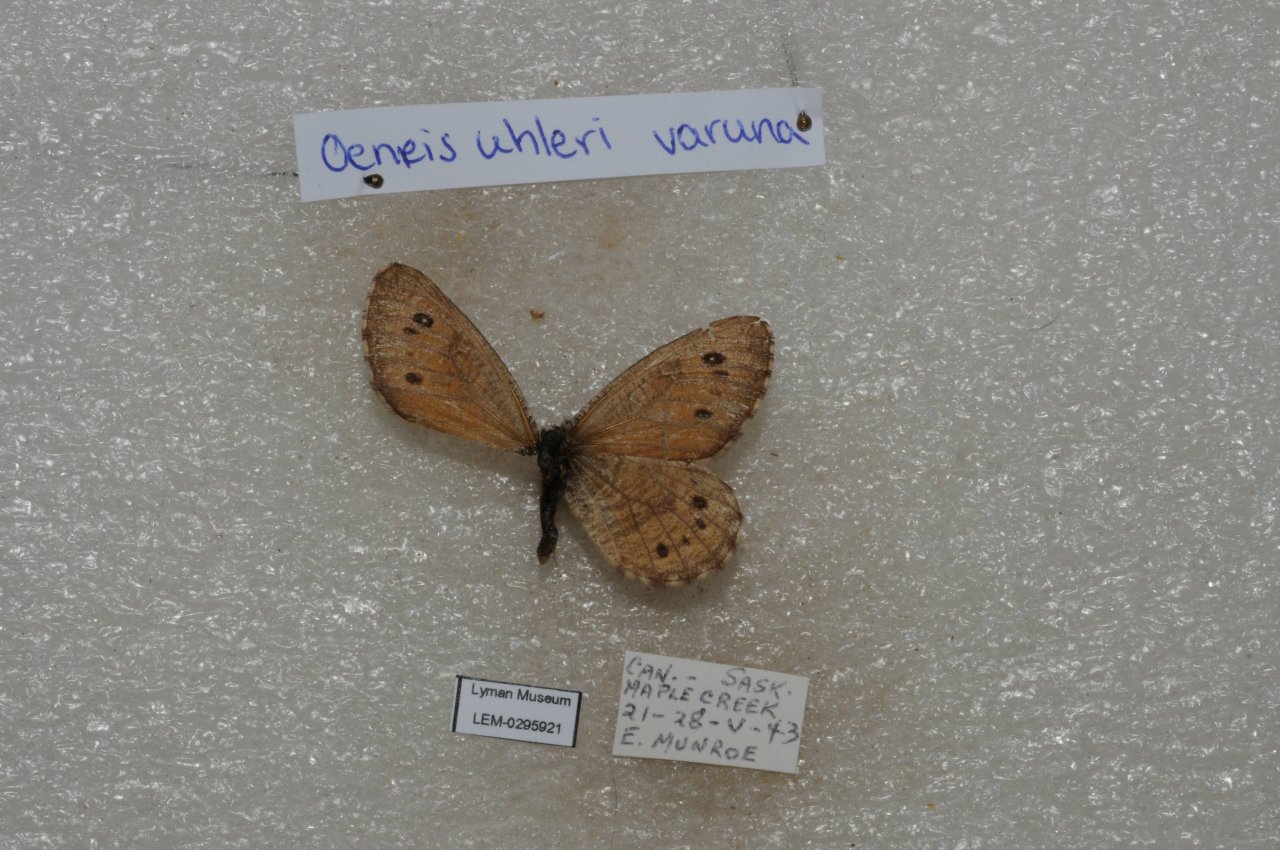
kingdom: Animalia
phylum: Arthropoda
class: Insecta
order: Lepidoptera
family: Nymphalidae
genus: Oeneis
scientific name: Oeneis uhleri
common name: Uhler's Arctic
